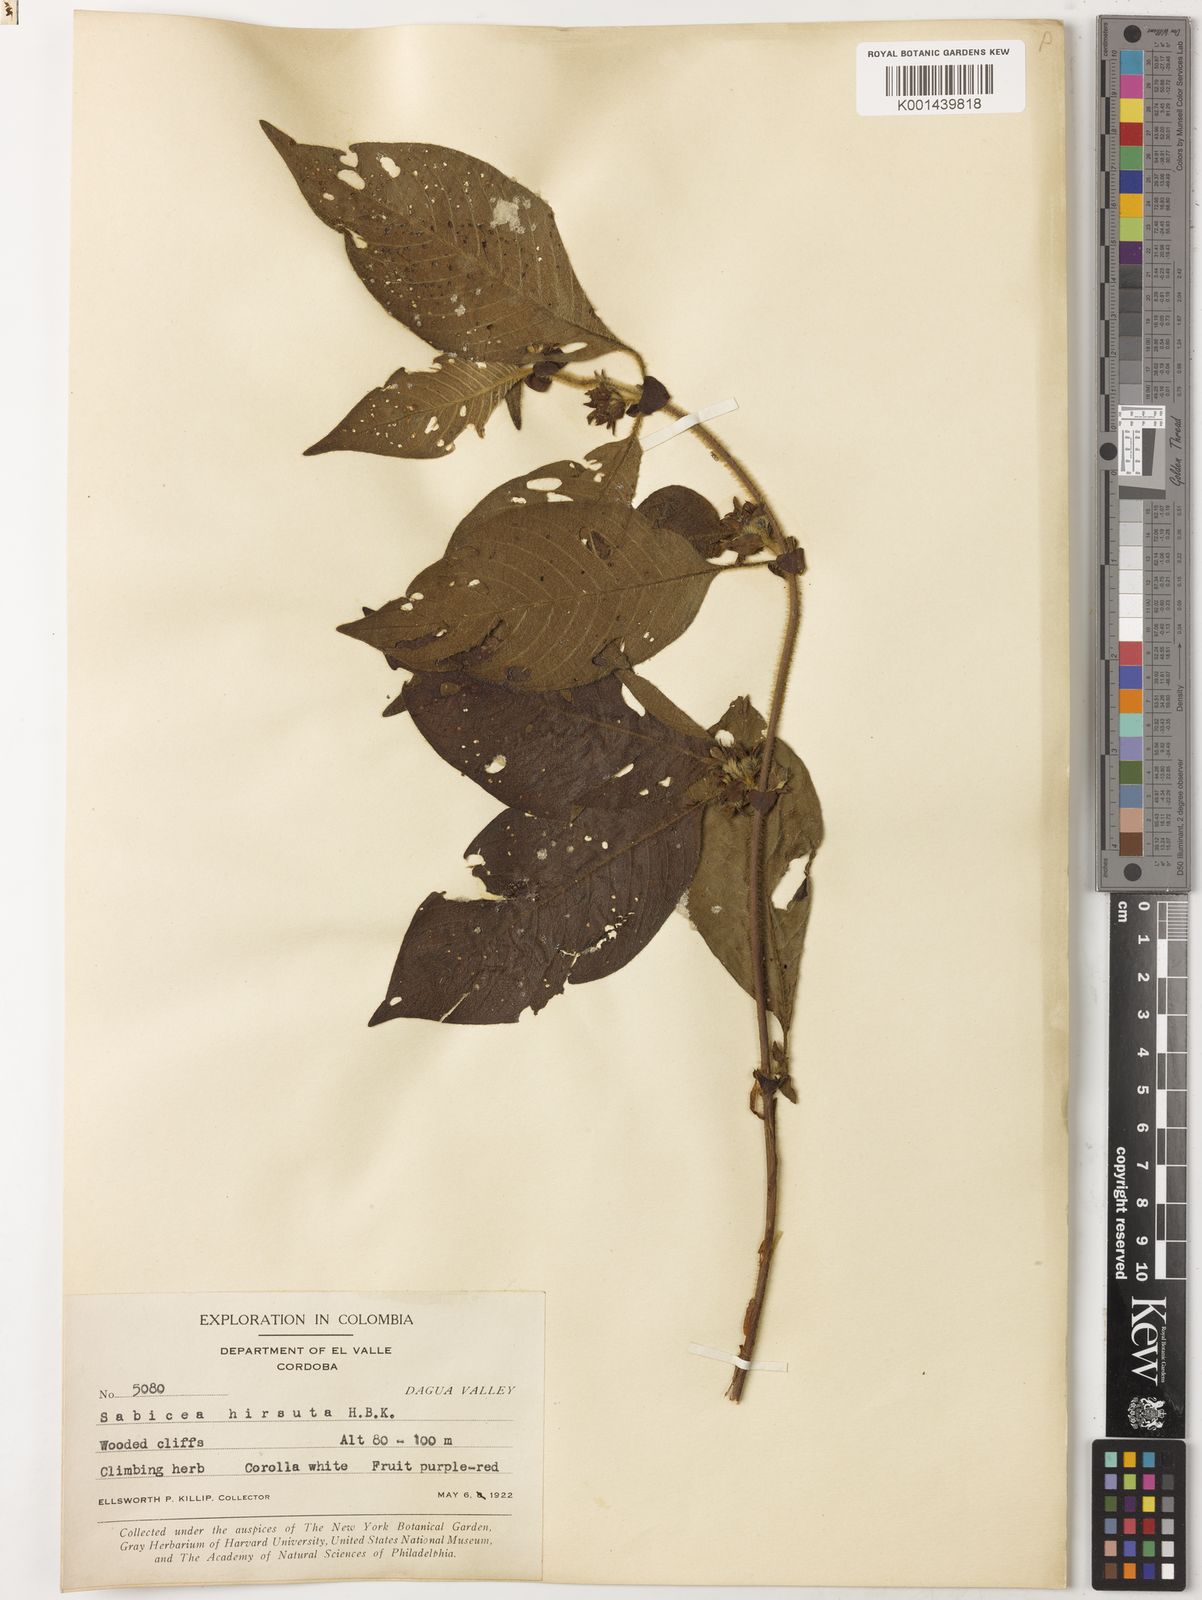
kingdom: Plantae
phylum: Tracheophyta
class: Magnoliopsida
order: Gentianales
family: Rubiaceae
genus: Sabicea
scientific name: Sabicea villosa
